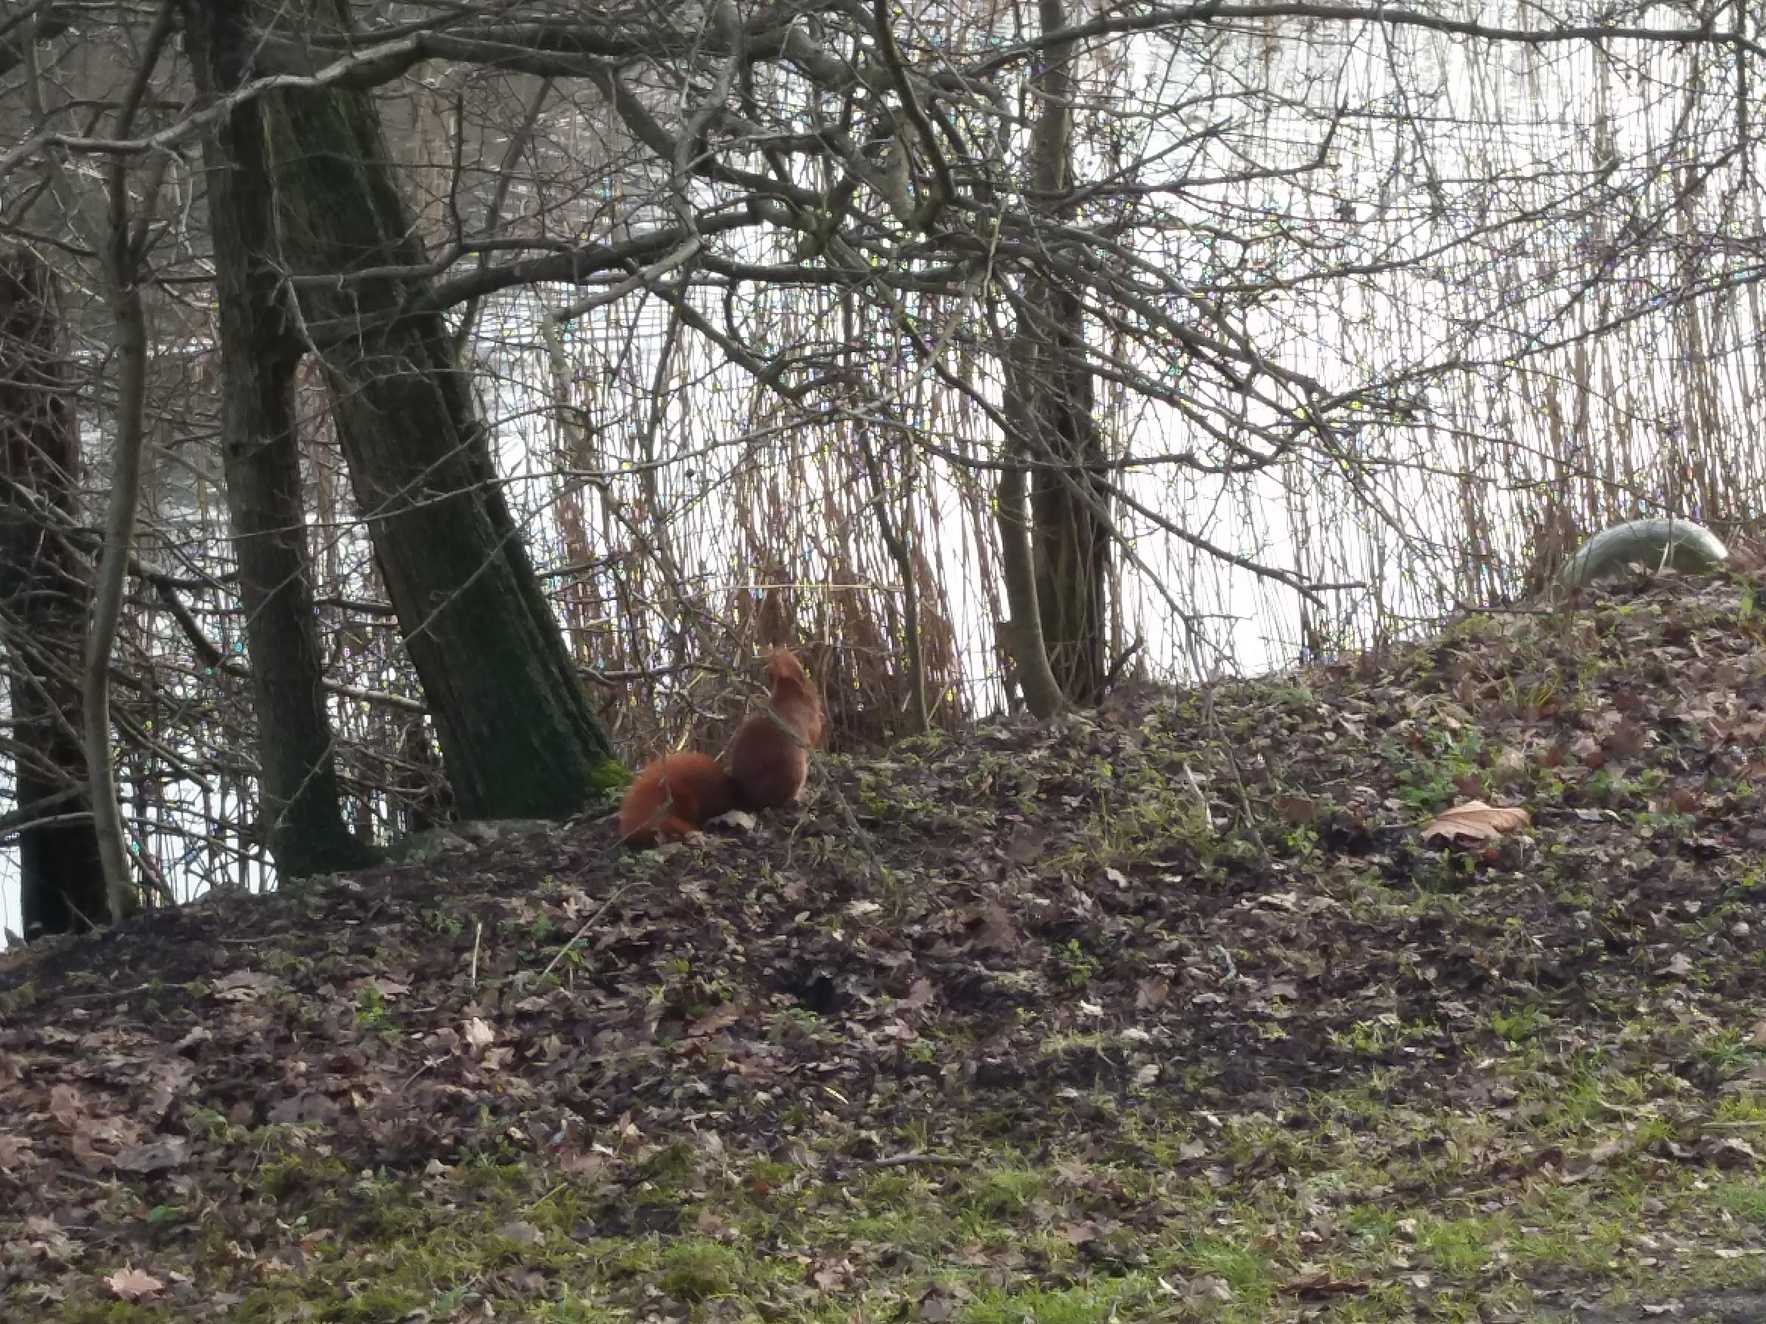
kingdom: Animalia
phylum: Chordata
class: Mammalia
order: Rodentia
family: Sciuridae
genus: Sciurus
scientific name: Sciurus vulgaris
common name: Egern
